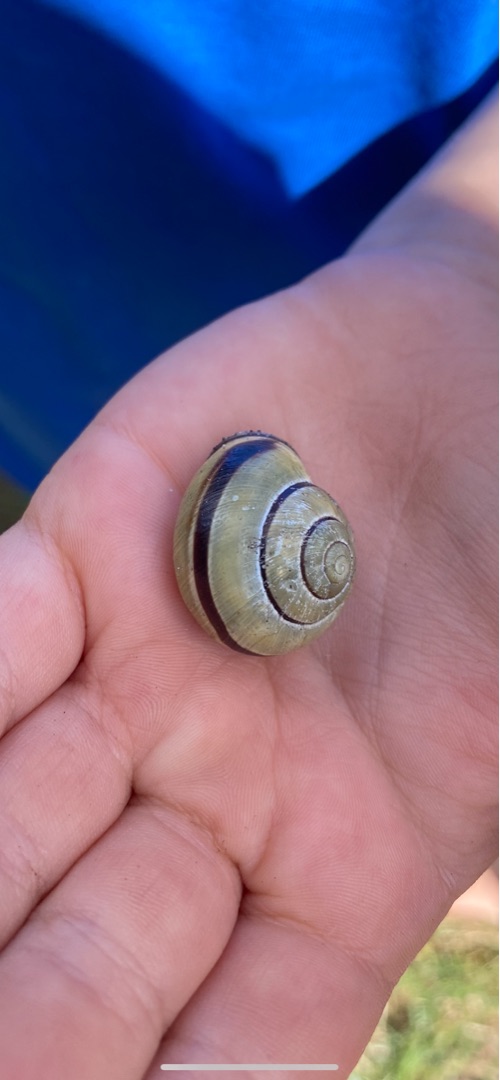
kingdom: Animalia
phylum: Mollusca
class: Gastropoda
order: Stylommatophora
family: Helicidae
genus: Cepaea
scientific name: Cepaea nemoralis
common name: Lundsnegl
